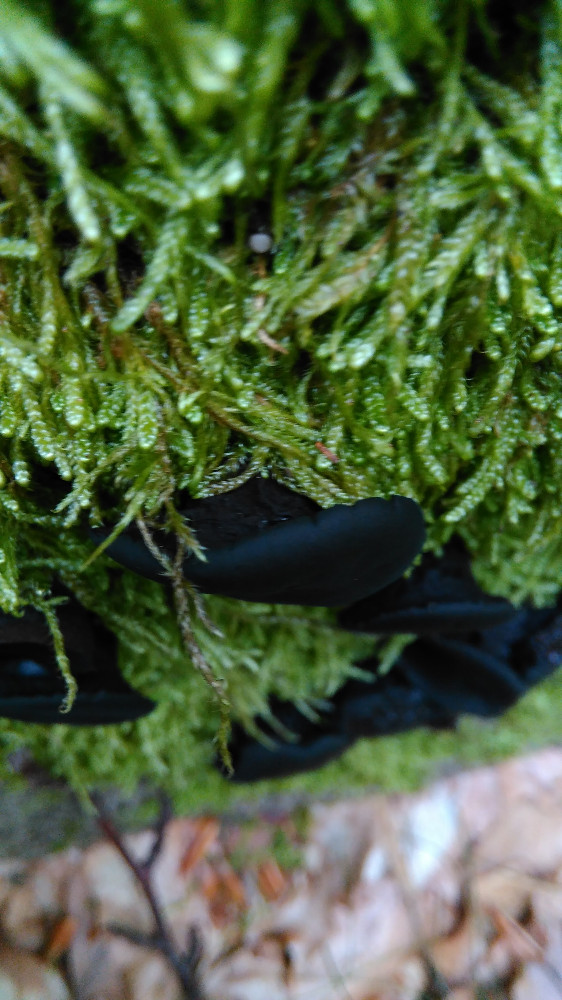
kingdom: Fungi
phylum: Ascomycota
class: Leotiomycetes
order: Phacidiales
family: Phacidiaceae
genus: Bulgaria
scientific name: Bulgaria inquinans
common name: afsmittende topsvamp
